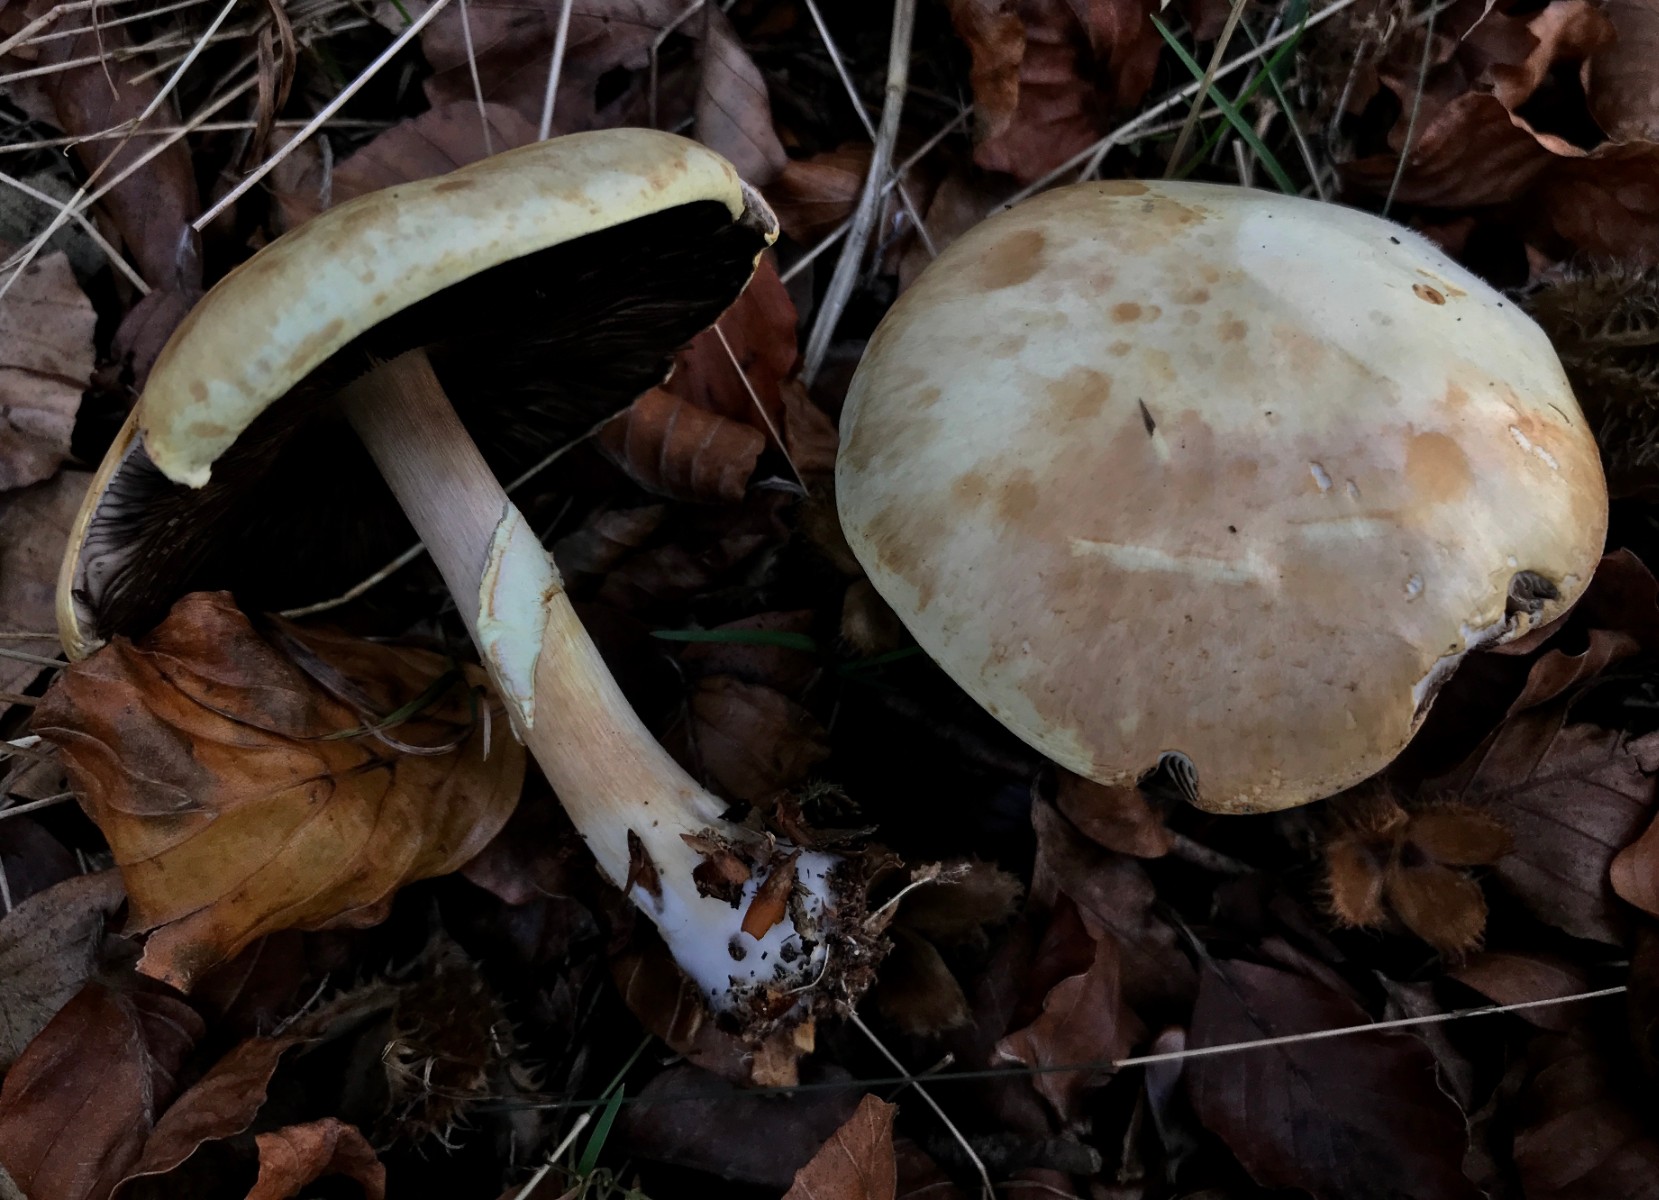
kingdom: Fungi
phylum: Basidiomycota
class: Agaricomycetes
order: Agaricales
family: Agaricaceae
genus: Agaricus
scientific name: Agaricus
